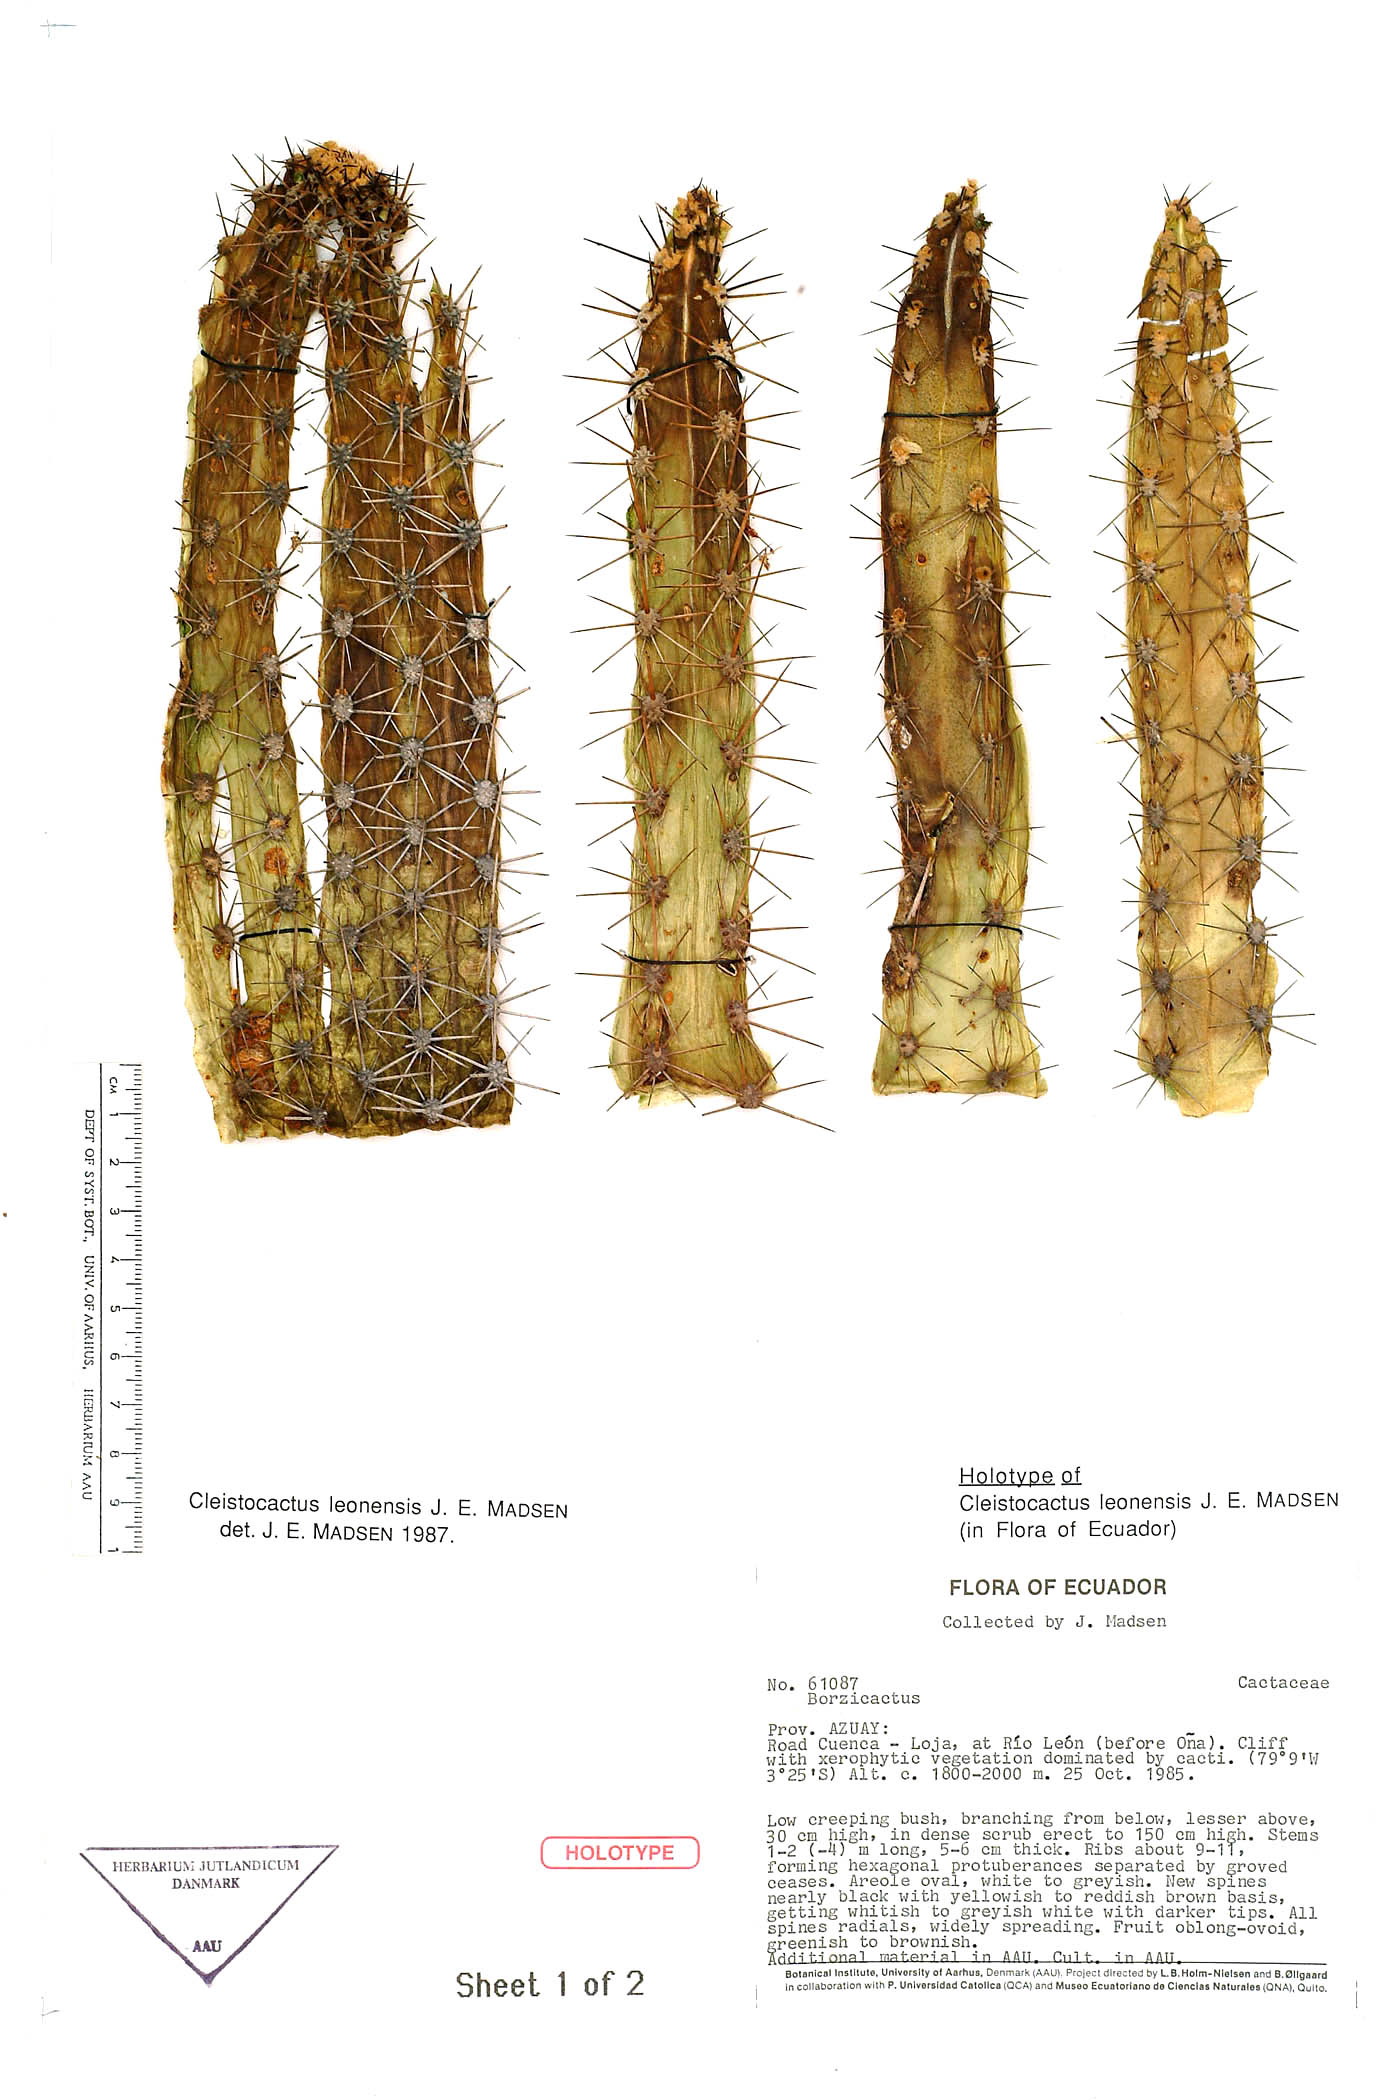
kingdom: Plantae
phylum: Tracheophyta
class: Magnoliopsida
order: Caryophyllales
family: Cactaceae
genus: Borzicactus
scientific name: Borzicactus leonensis
